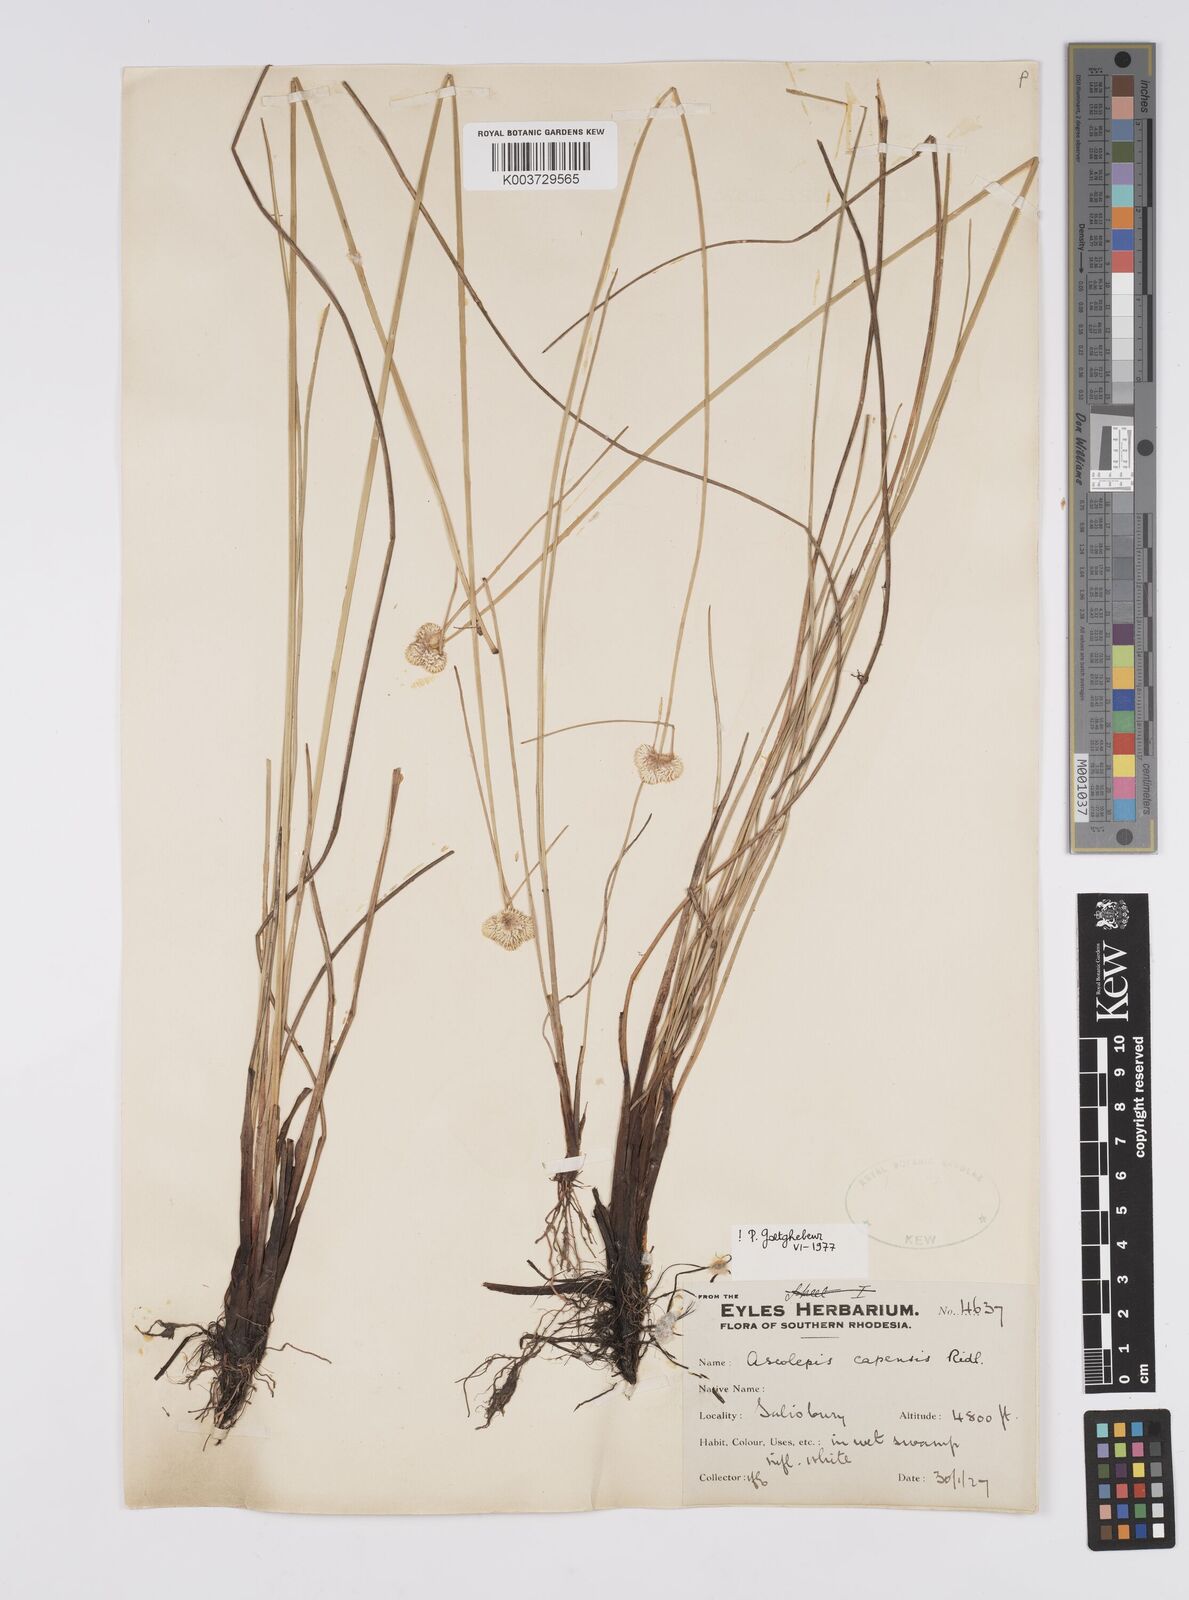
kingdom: Plantae
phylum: Tracheophyta
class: Liliopsida
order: Poales
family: Cyperaceae
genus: Cyperus
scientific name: Cyperus
